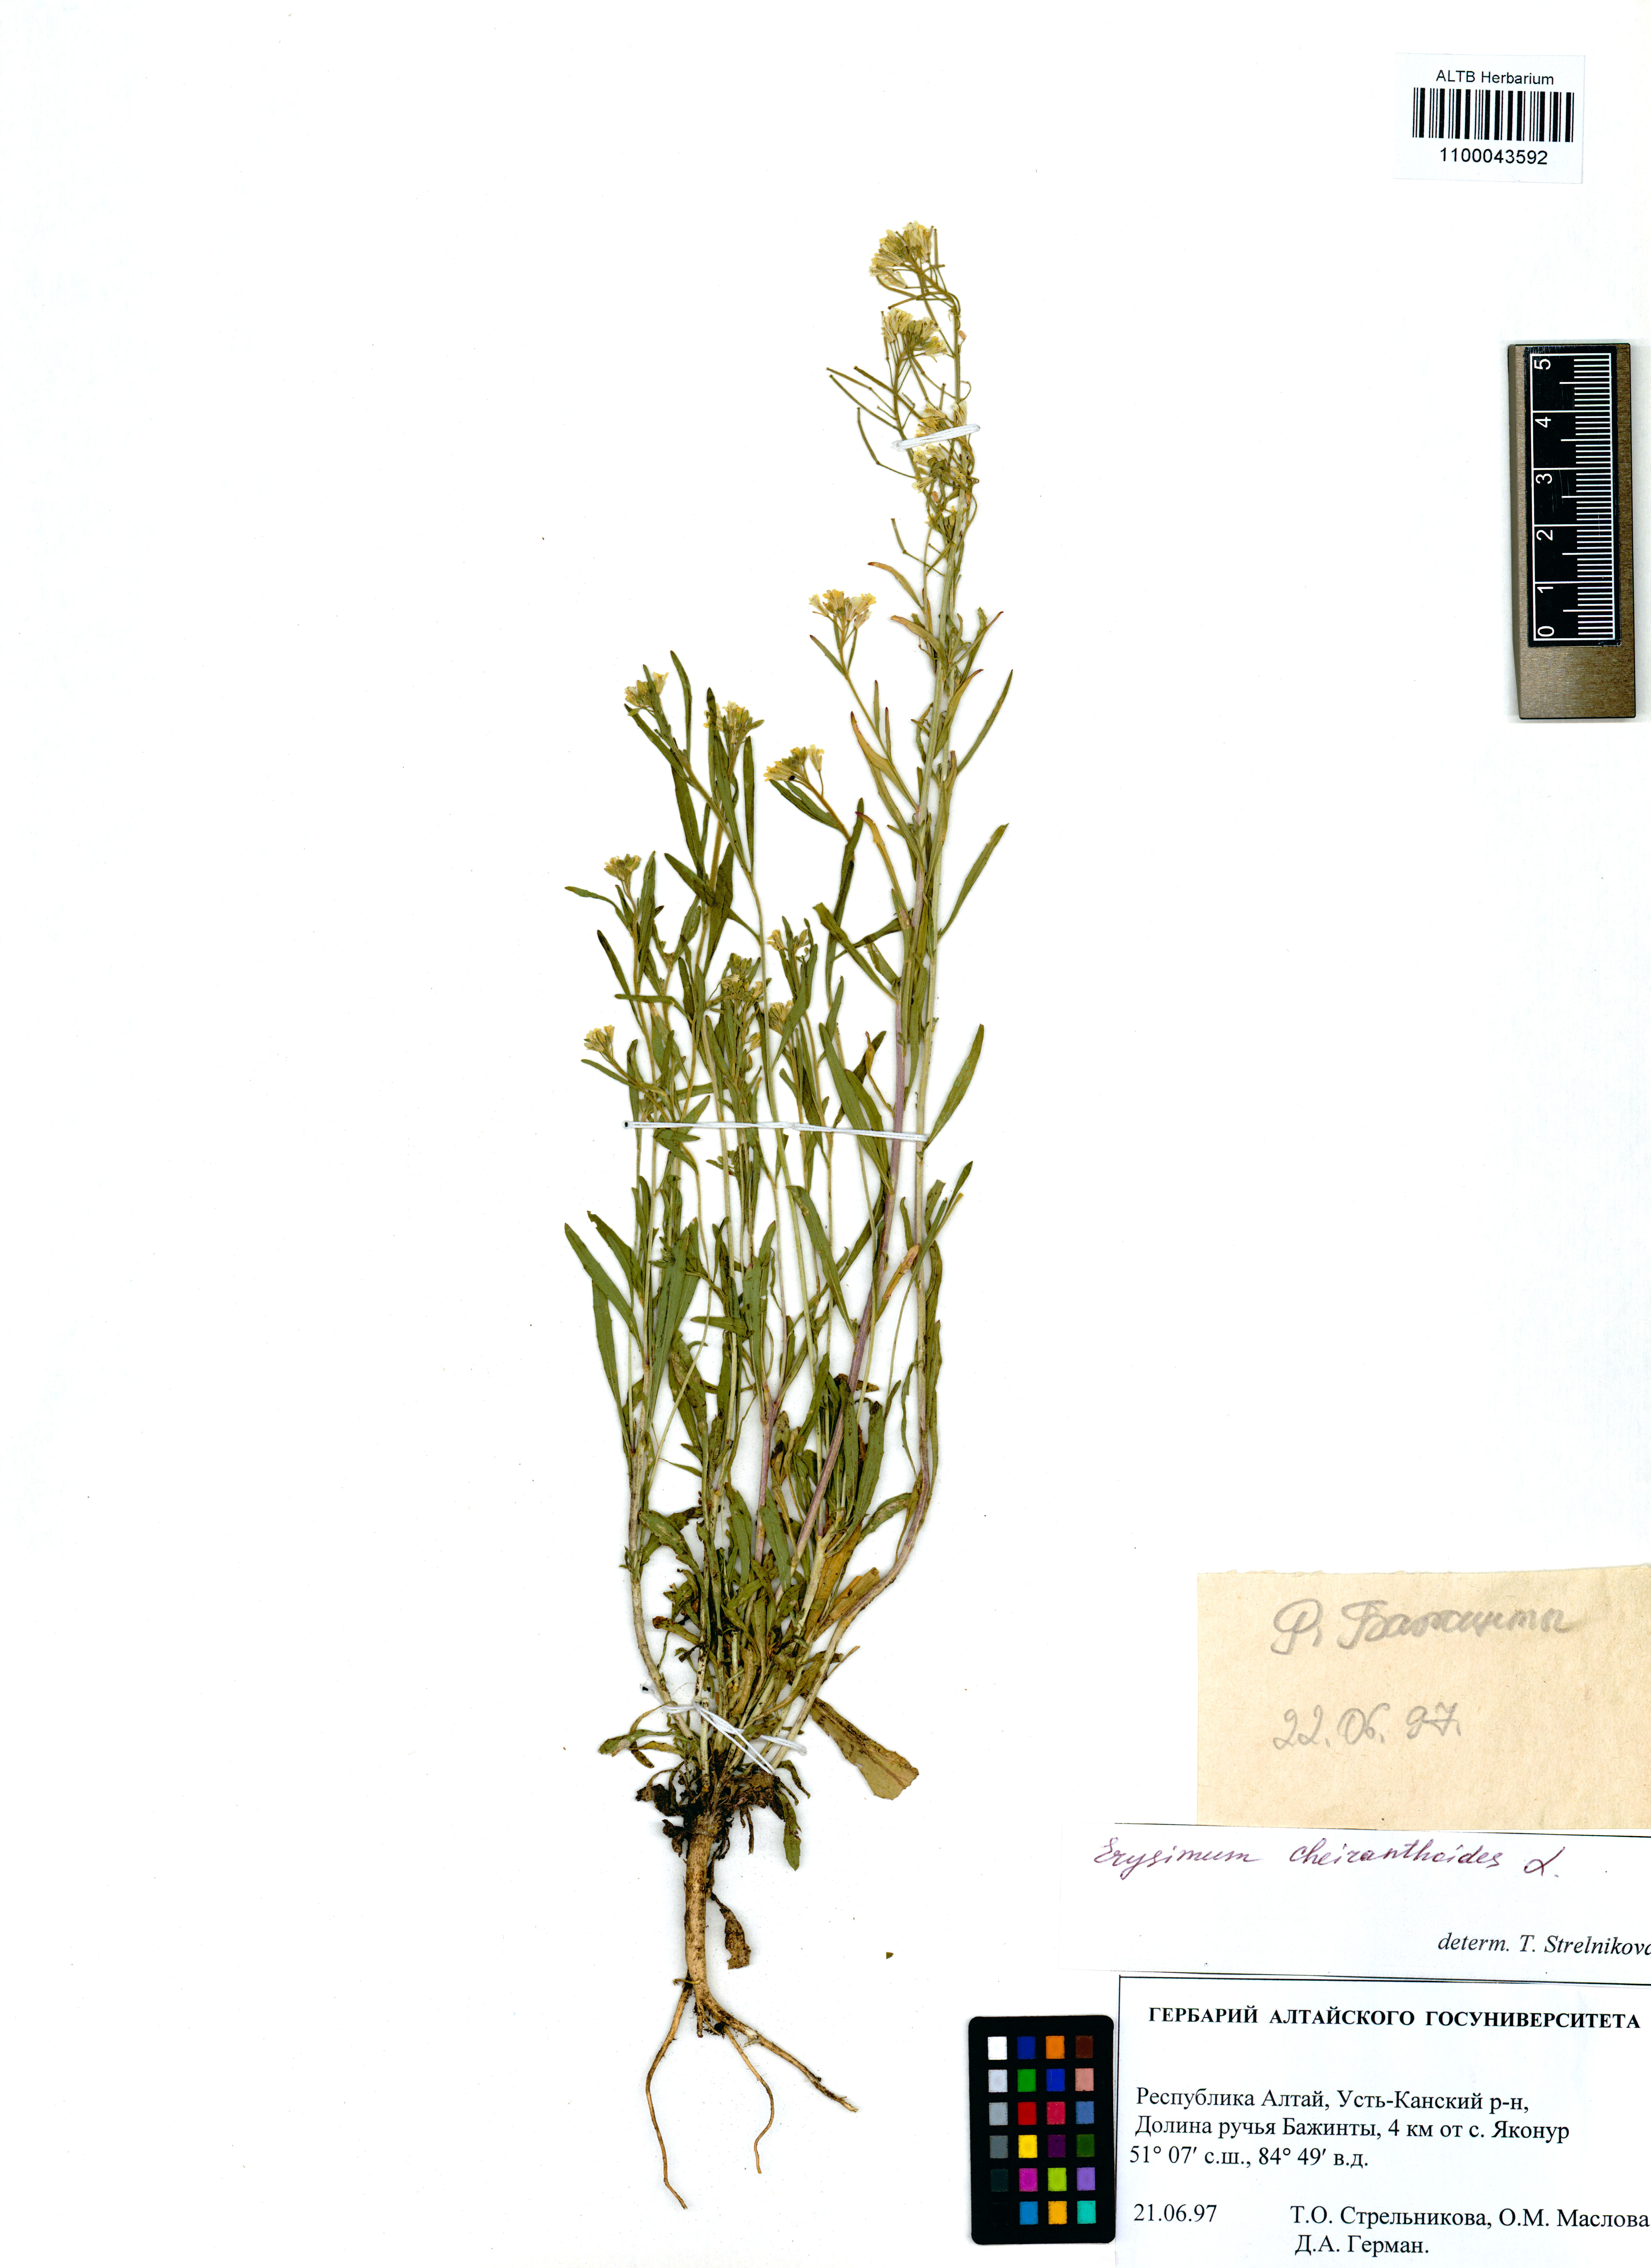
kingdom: Plantae
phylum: Tracheophyta
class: Magnoliopsida
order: Brassicales
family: Brassicaceae
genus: Erysimum
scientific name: Erysimum cheiranthoides
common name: Treacle mustard
